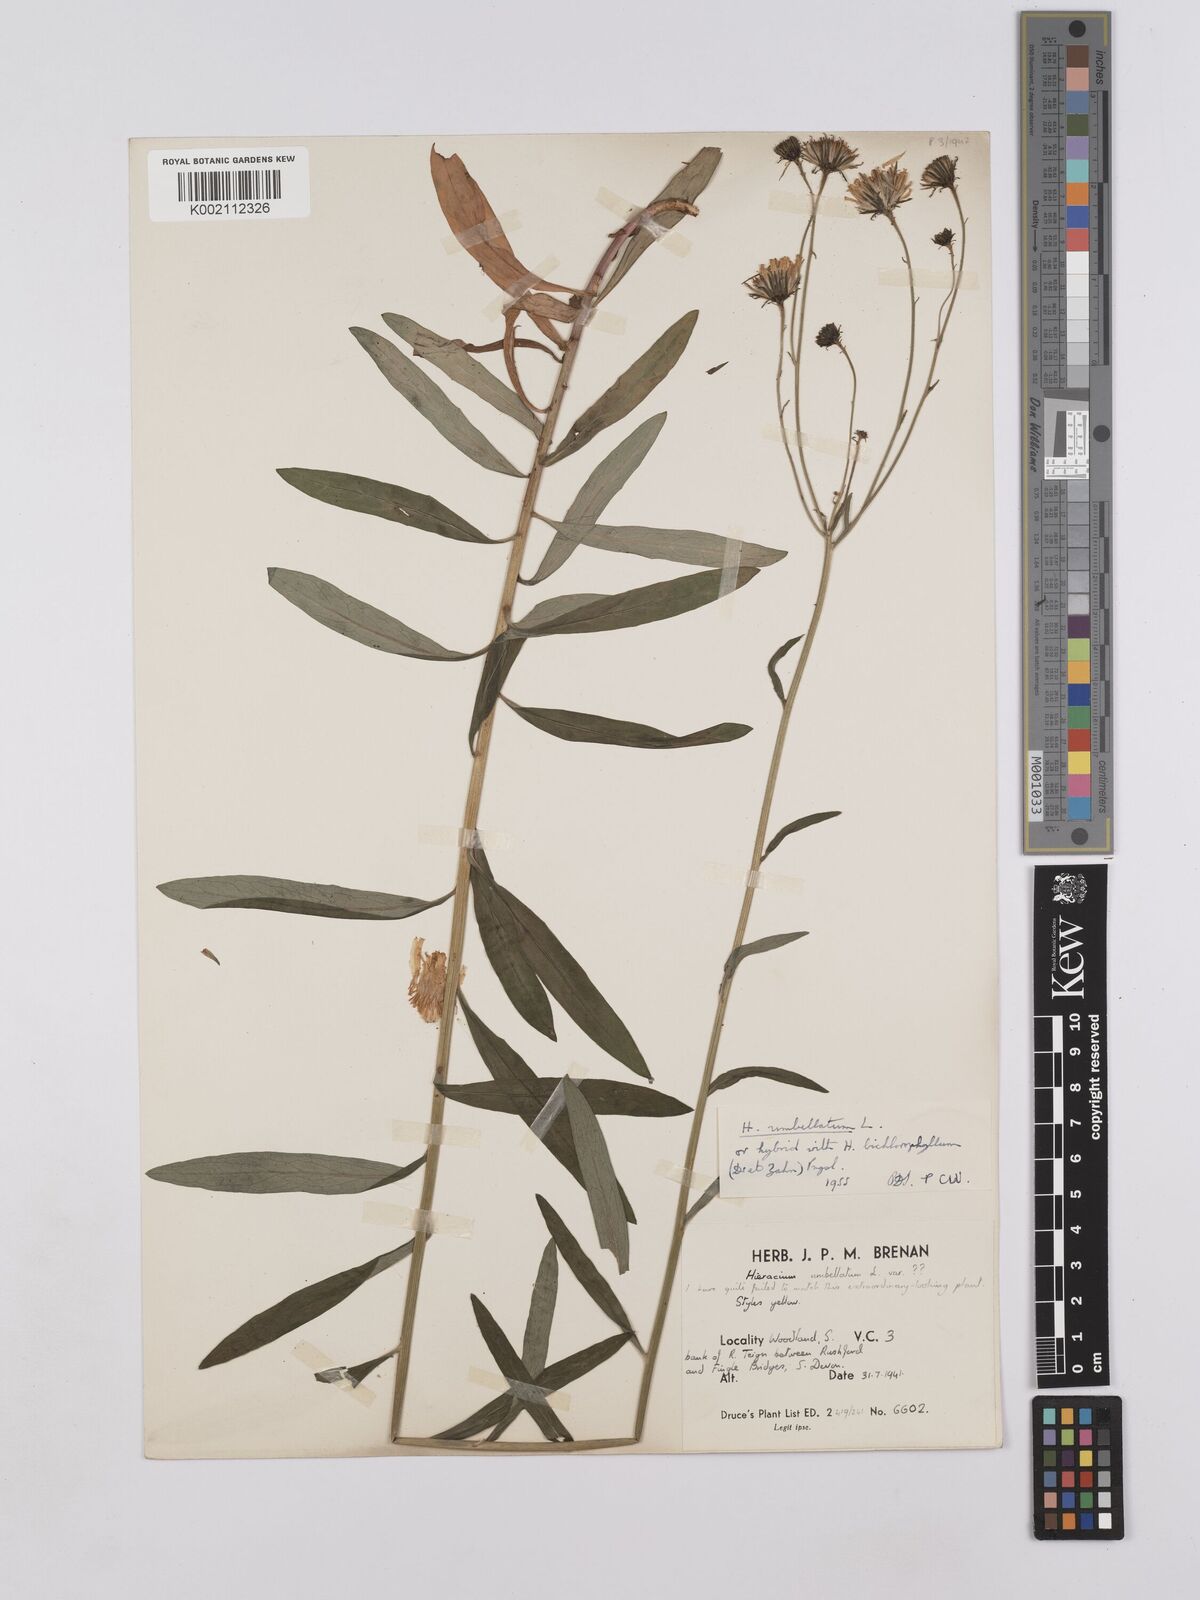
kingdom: Plantae
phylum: Tracheophyta
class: Magnoliopsida
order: Asterales
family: Asteraceae
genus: Hieracium
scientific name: Hieracium umbellatum
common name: Northern hawkweed
